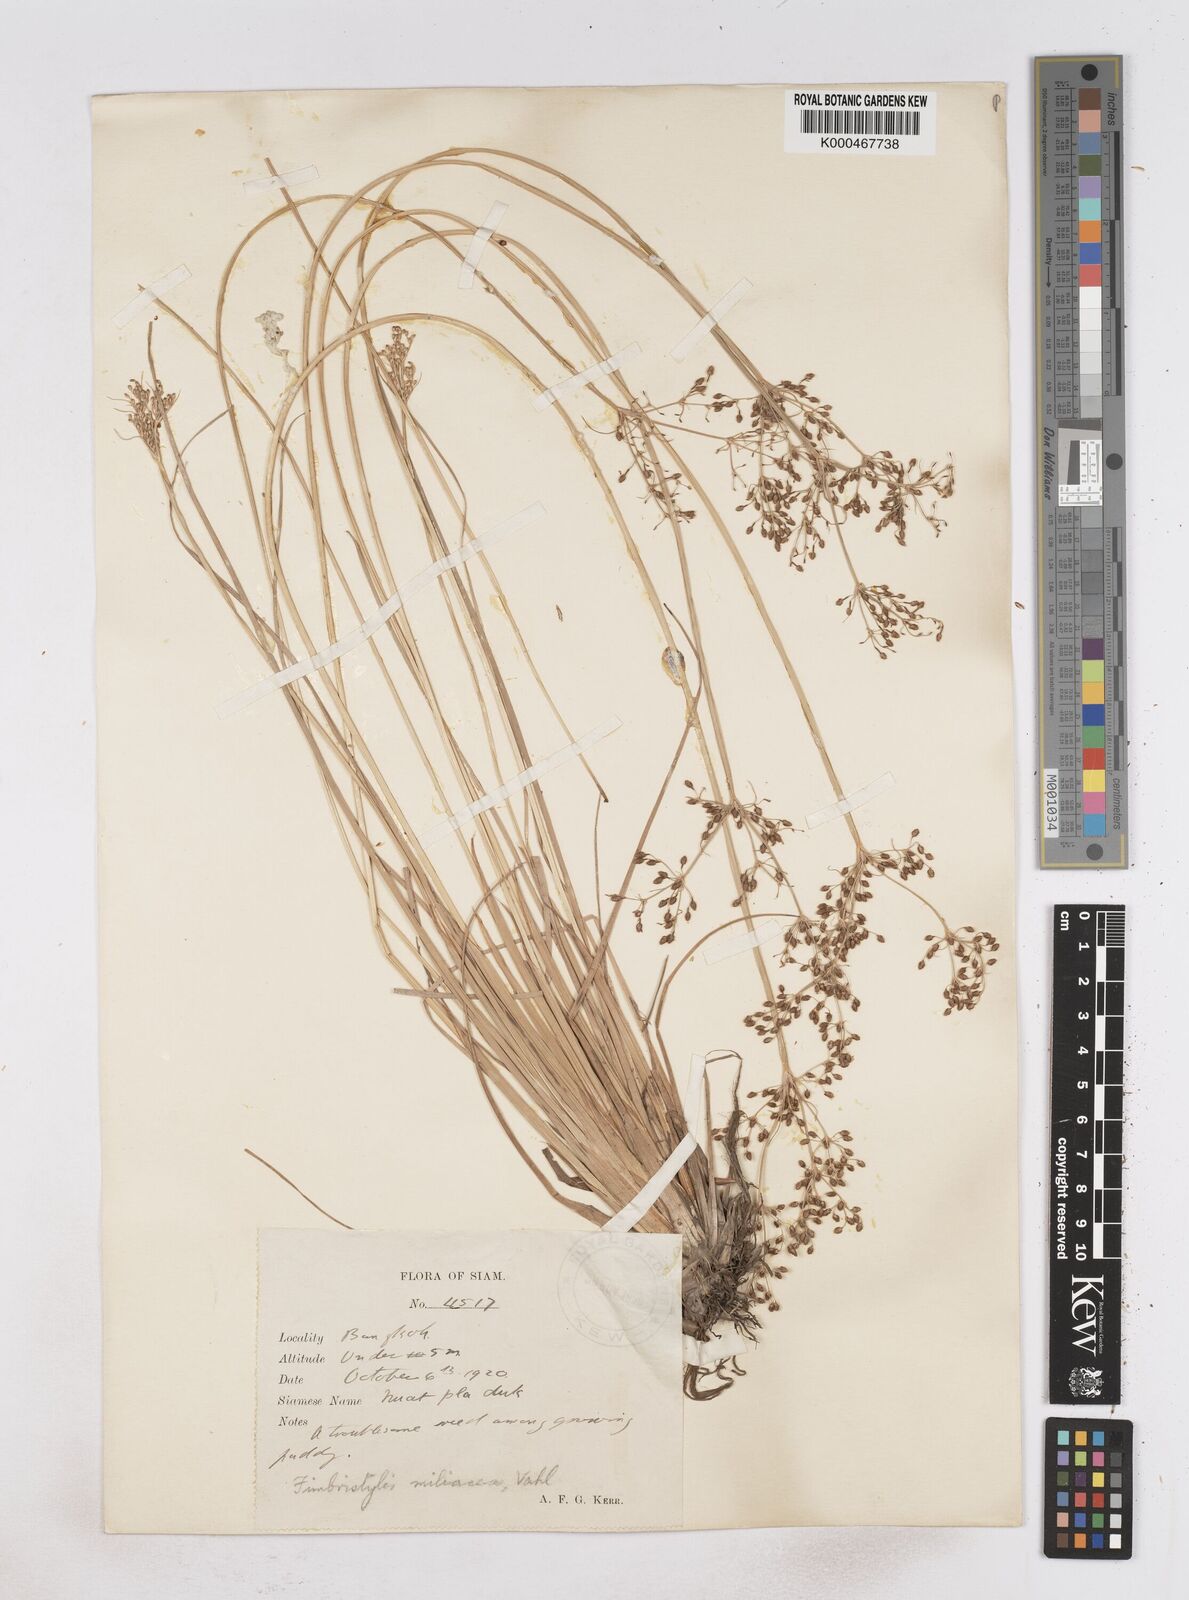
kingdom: Plantae
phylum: Tracheophyta
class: Liliopsida
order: Poales
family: Cyperaceae
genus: Fimbristylis
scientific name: Fimbristylis quinquangularis
